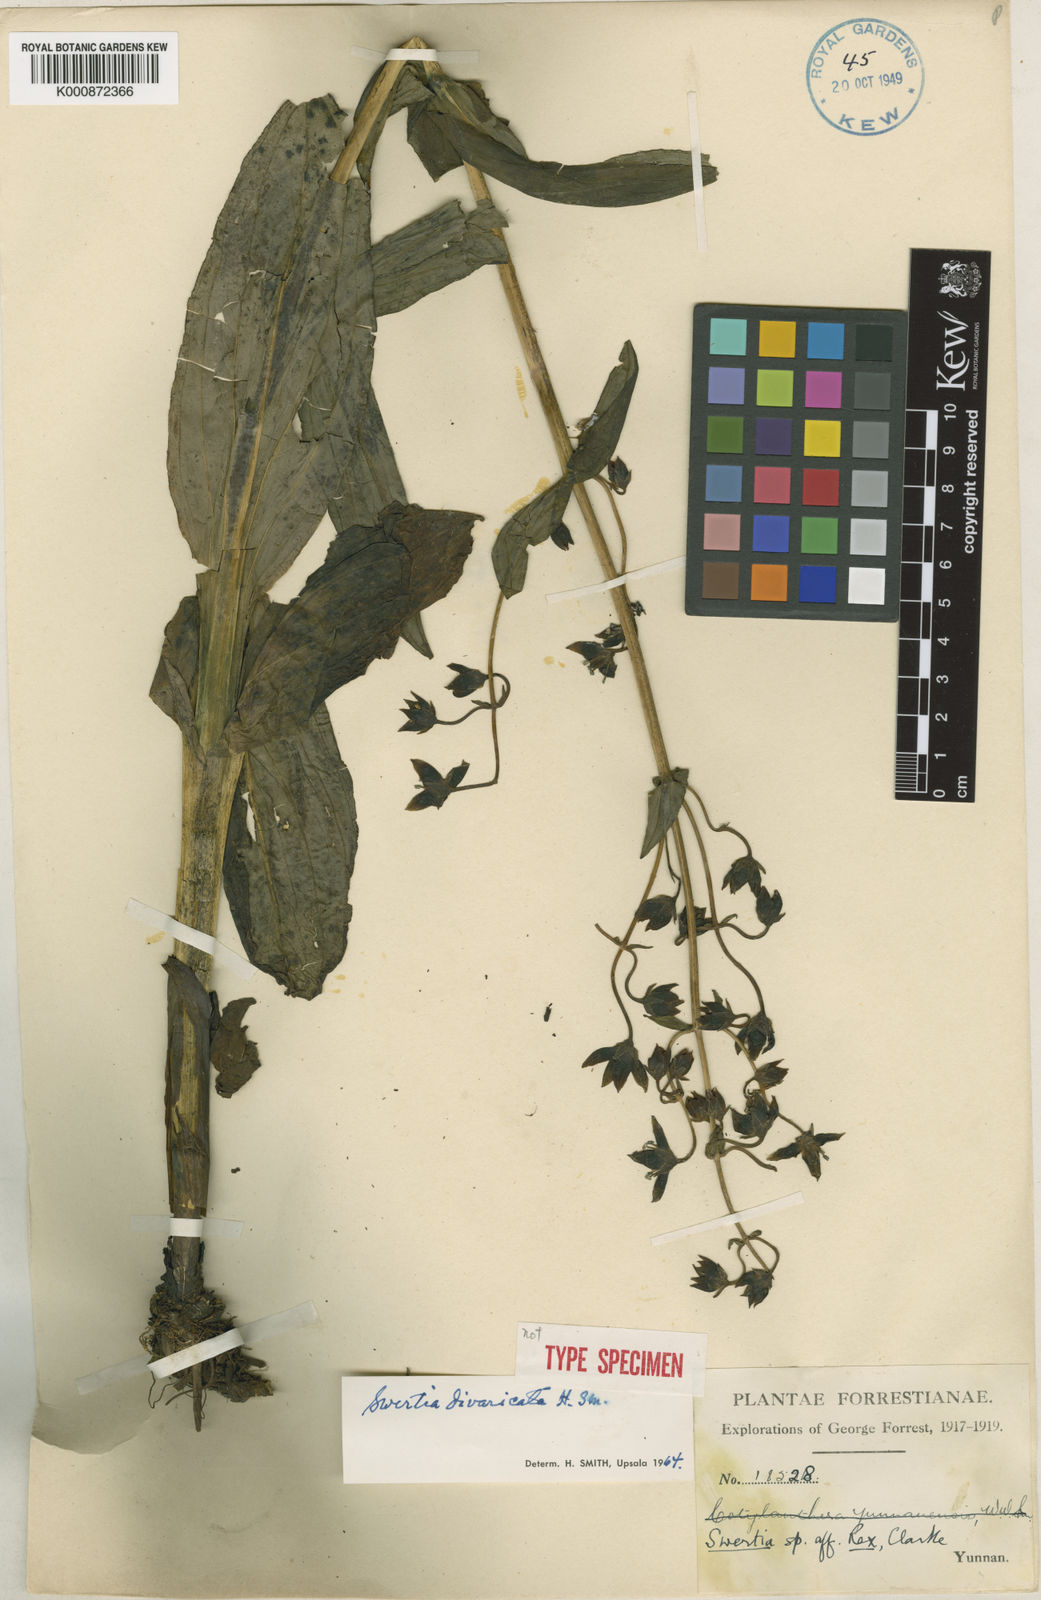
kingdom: Plantae
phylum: Tracheophyta
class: Magnoliopsida
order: Gentianales
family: Gentianaceae
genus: Swertia
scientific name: Swertia divaricata
